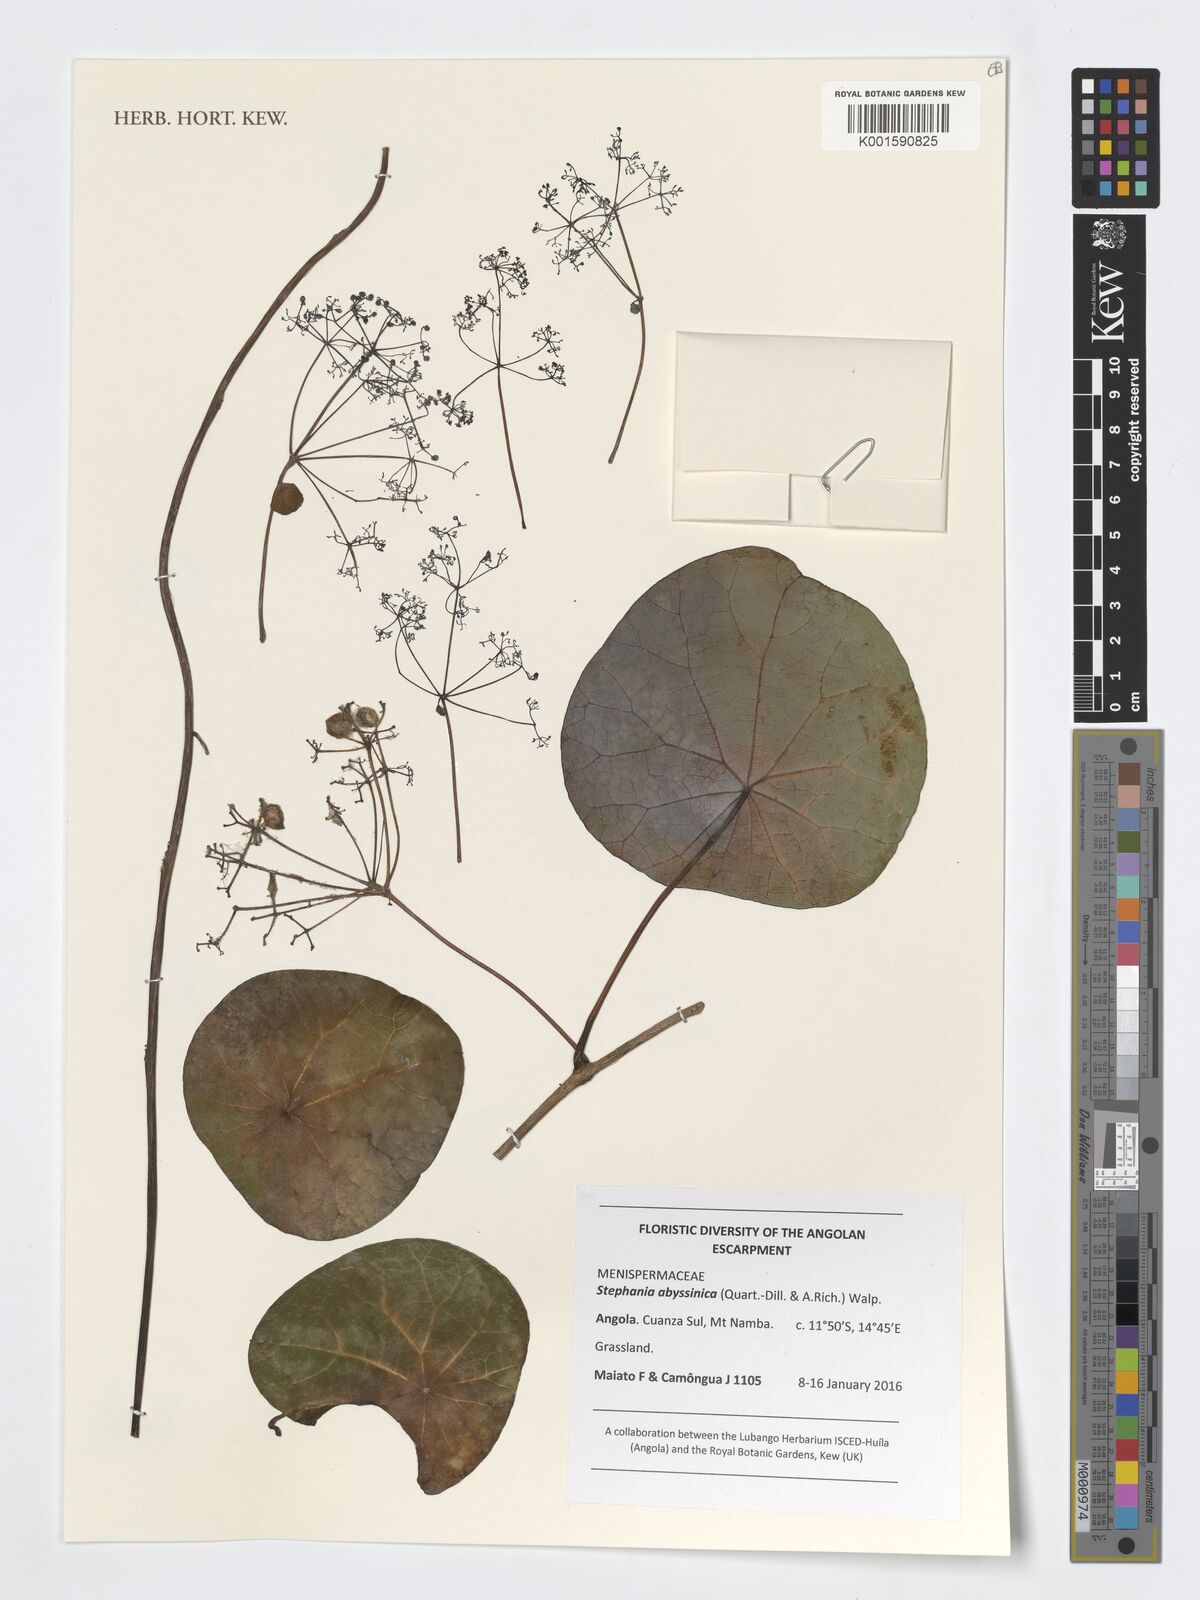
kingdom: Plantae
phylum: Tracheophyta
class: Magnoliopsida
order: Ranunculales
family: Menispermaceae
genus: Stephania
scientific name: Stephania abyssinica
